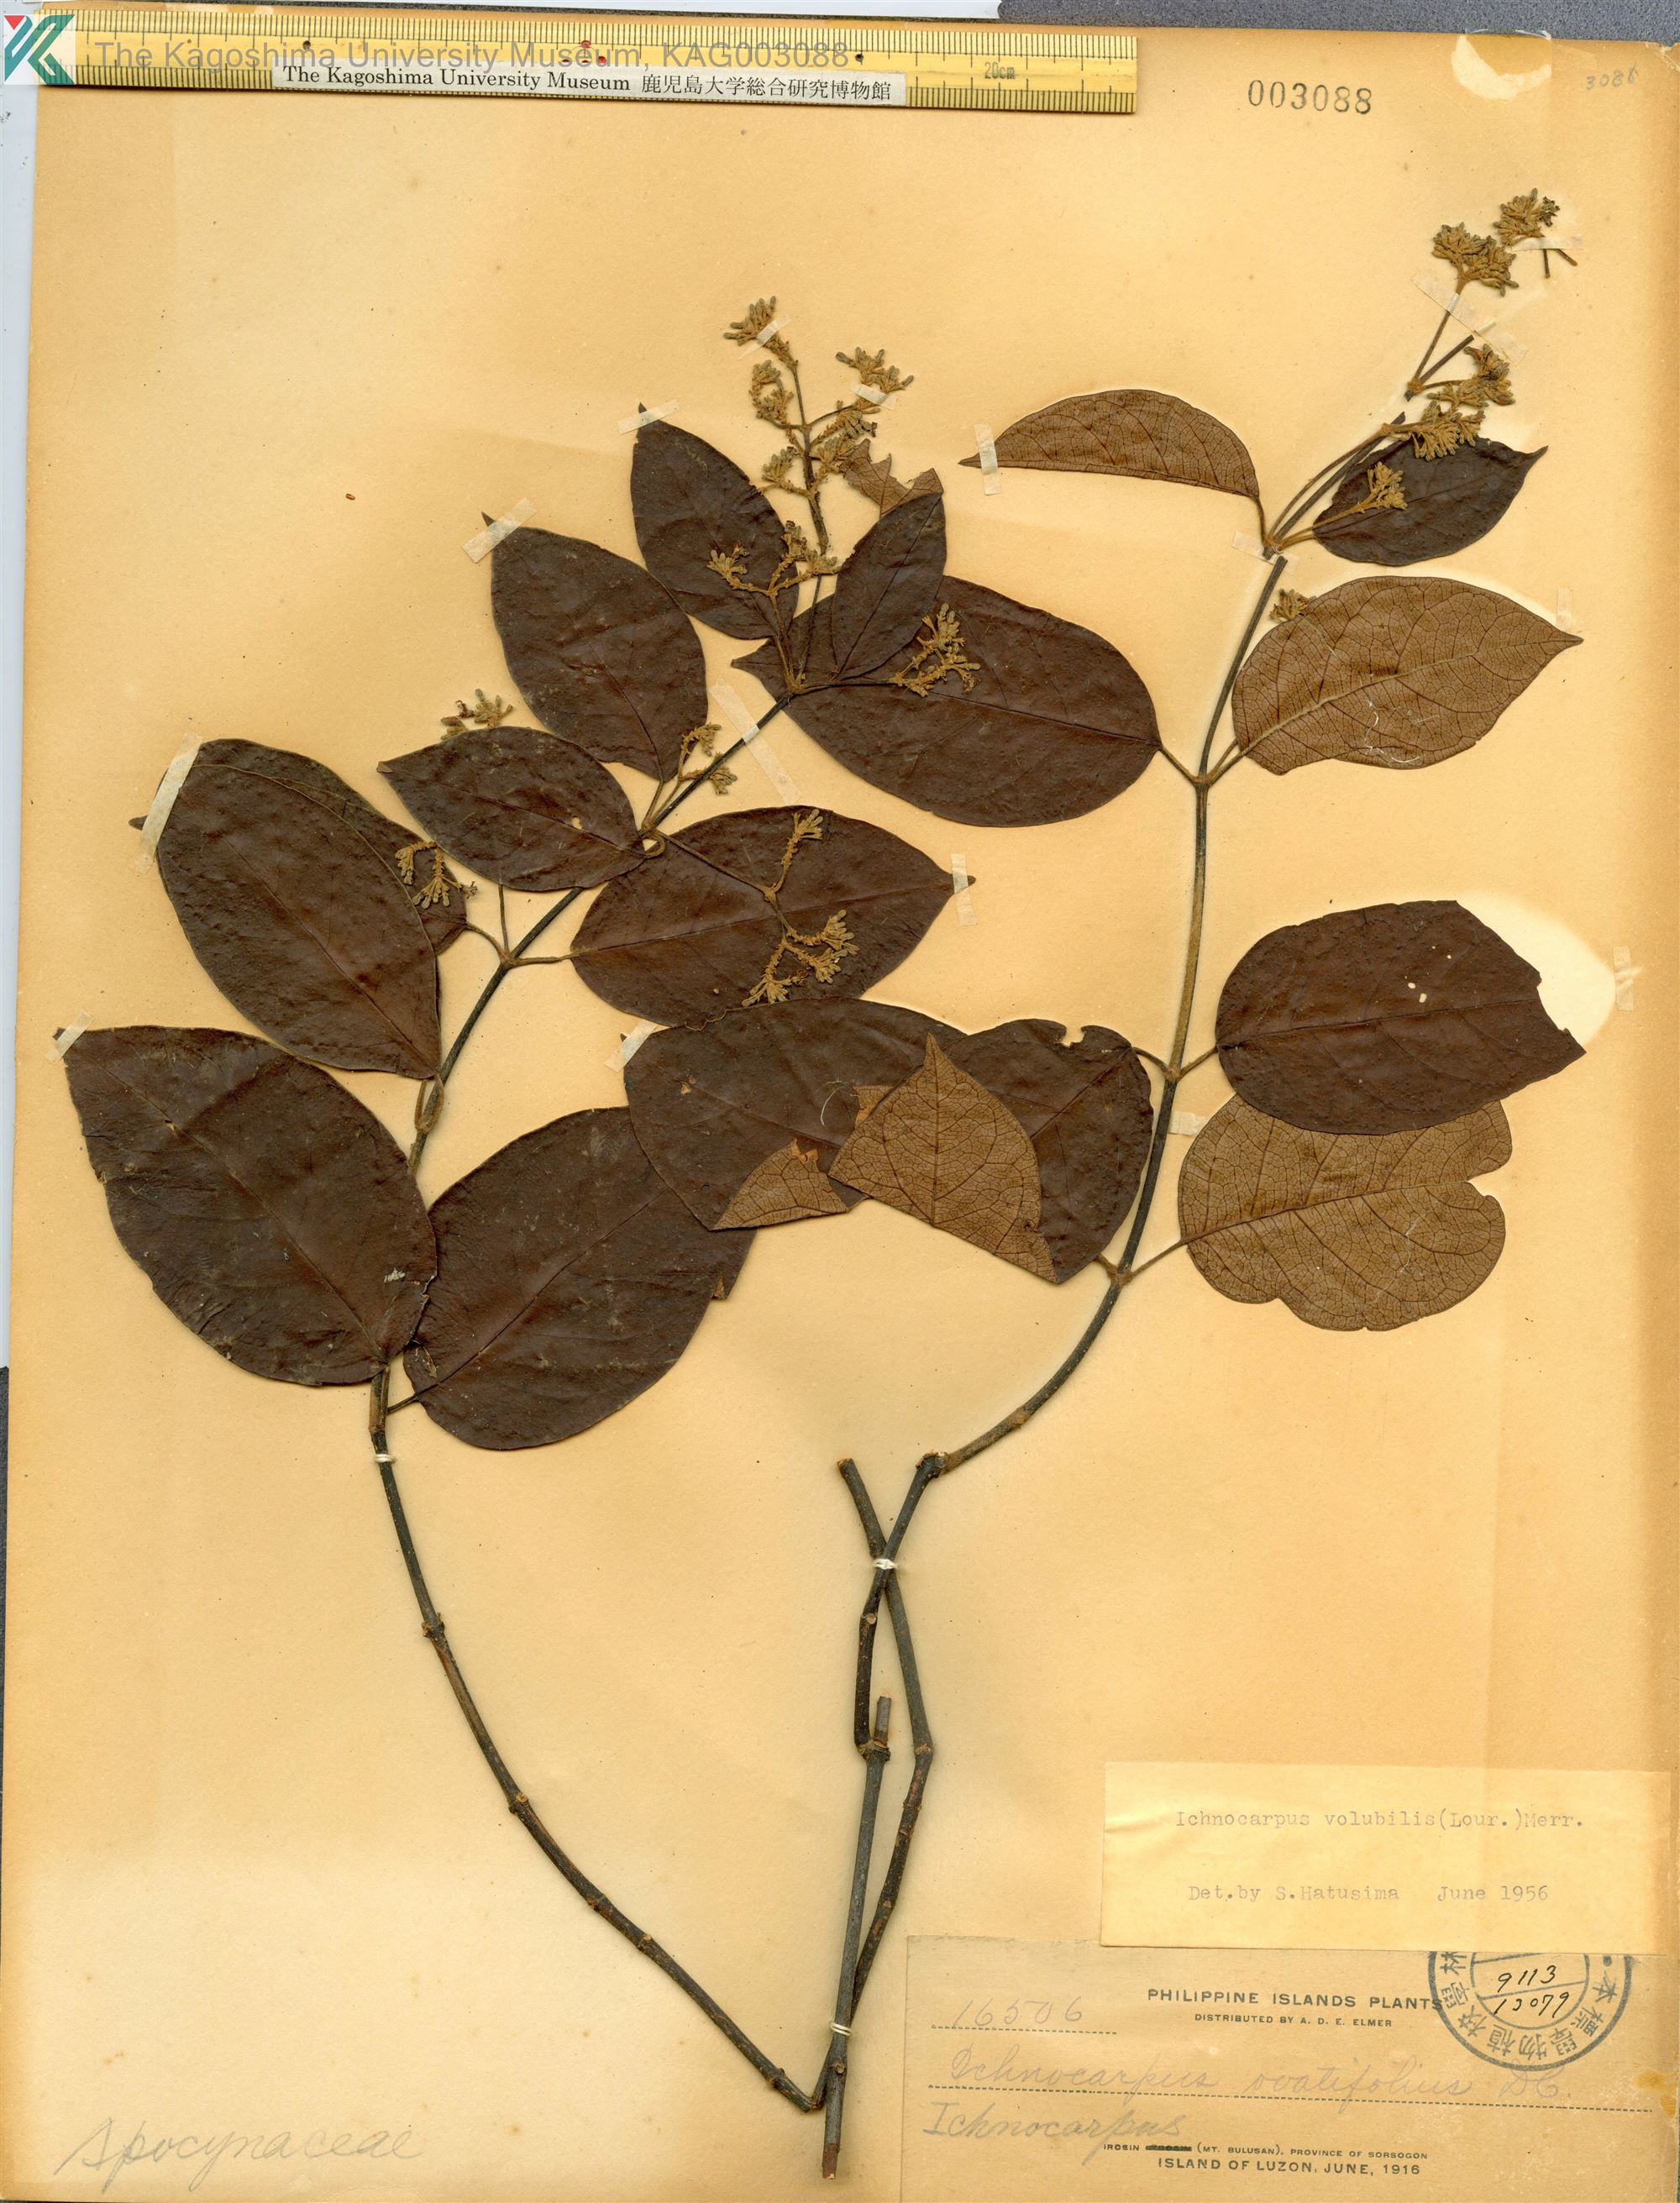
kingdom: Plantae
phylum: Tracheophyta
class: Magnoliopsida
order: Gentianales
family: Apocynaceae
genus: Ichnocarpus
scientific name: Ichnocarpus frutescens
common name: Ichnocarpus
